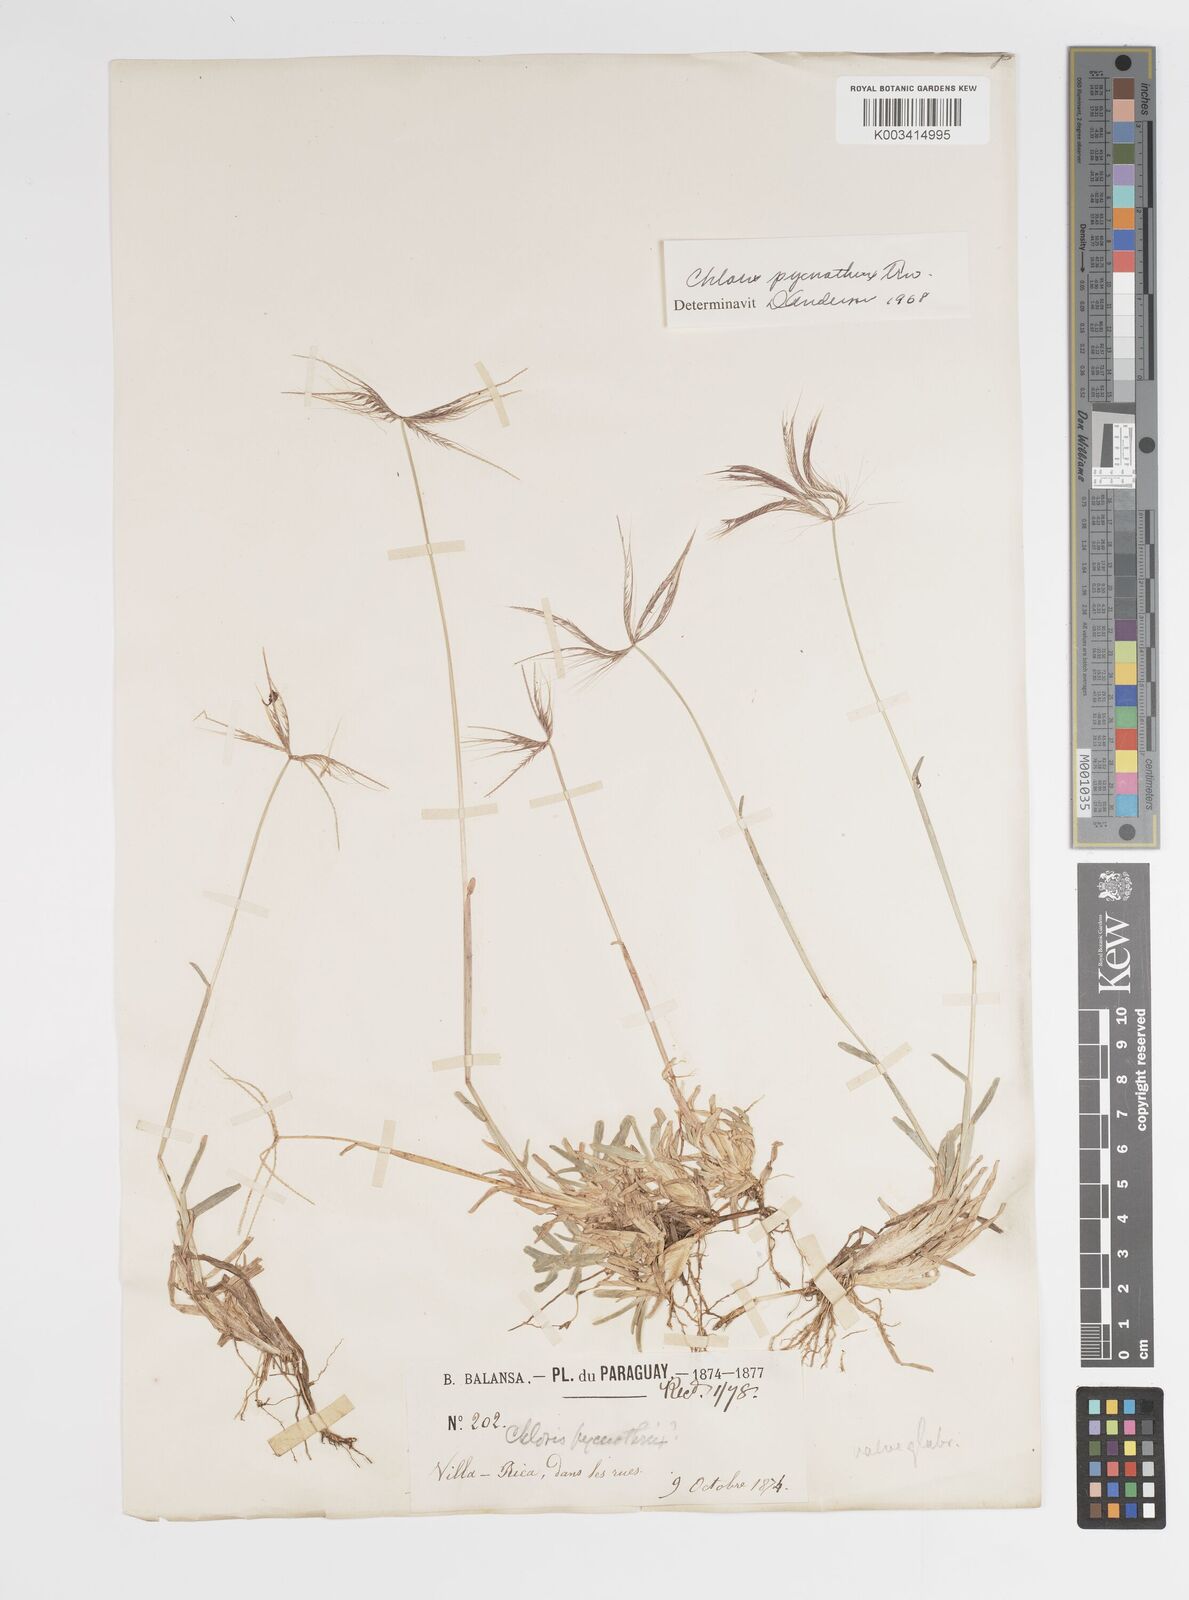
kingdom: Plantae
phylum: Tracheophyta
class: Liliopsida
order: Poales
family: Poaceae
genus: Chloris
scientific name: Chloris pycnothrix
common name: Spiderweb chloris
